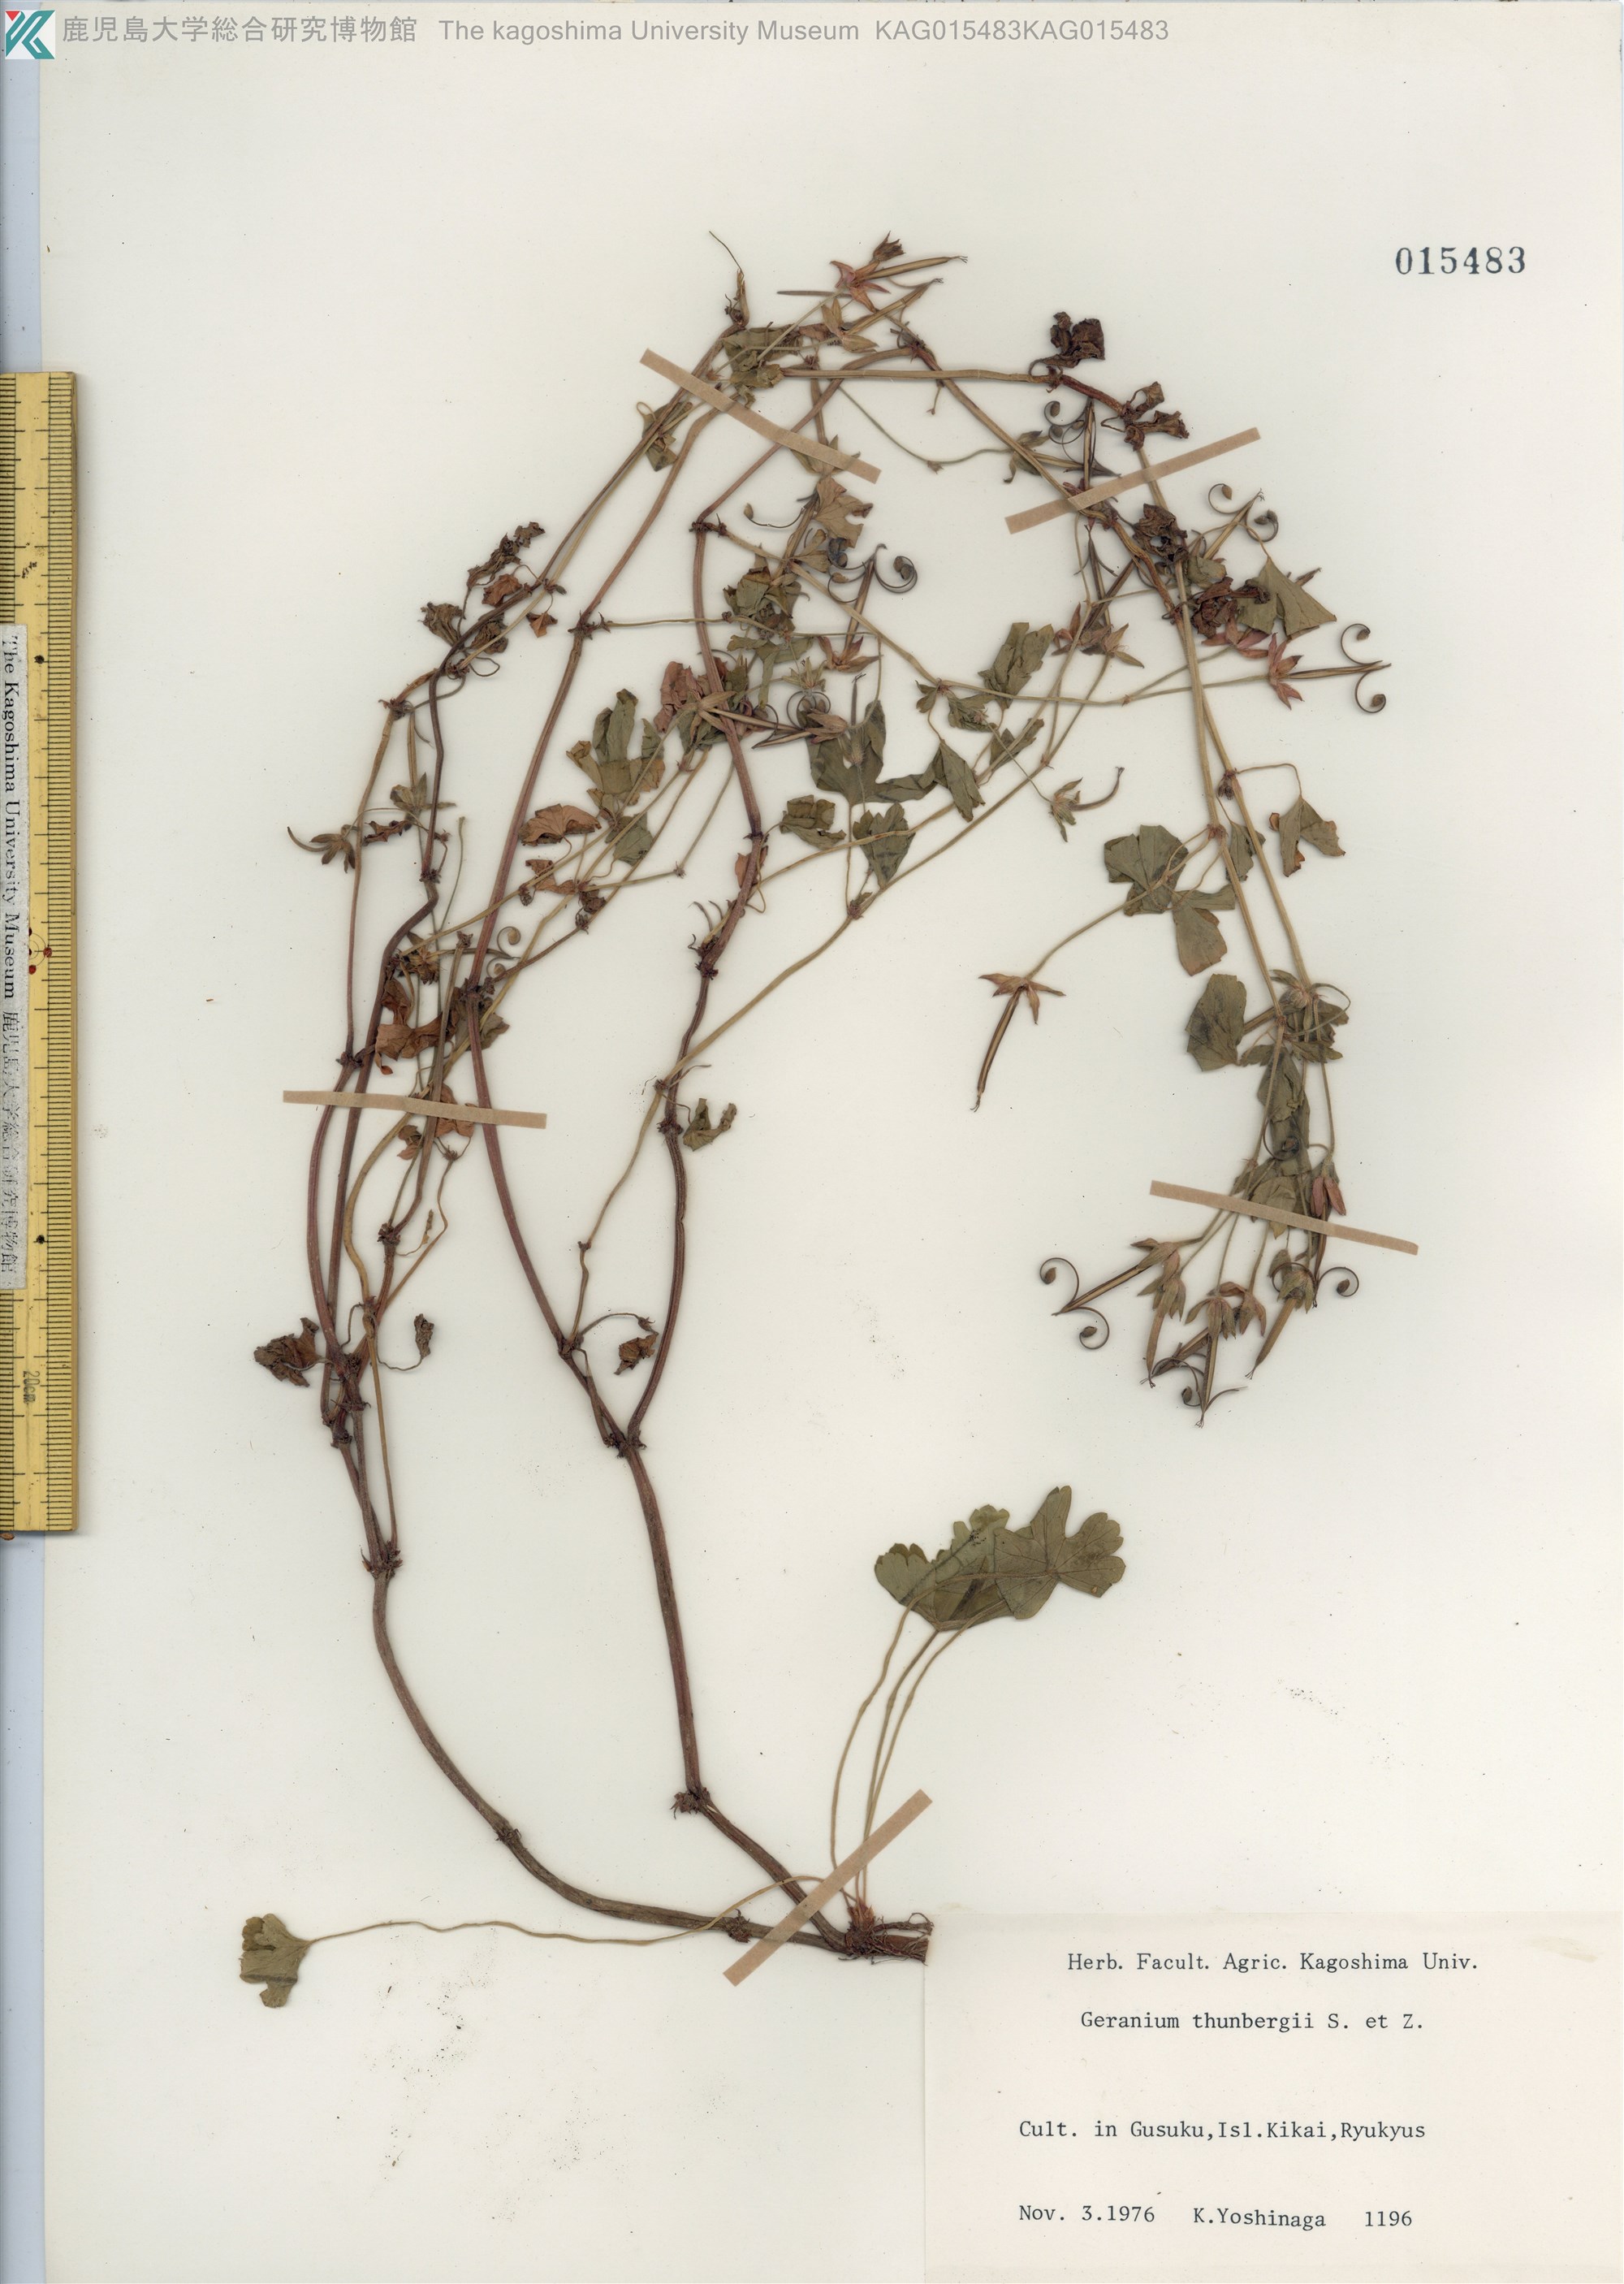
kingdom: Plantae
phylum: Tracheophyta
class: Magnoliopsida
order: Geraniales
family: Geraniaceae
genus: Geranium
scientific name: Geranium thunbergii
